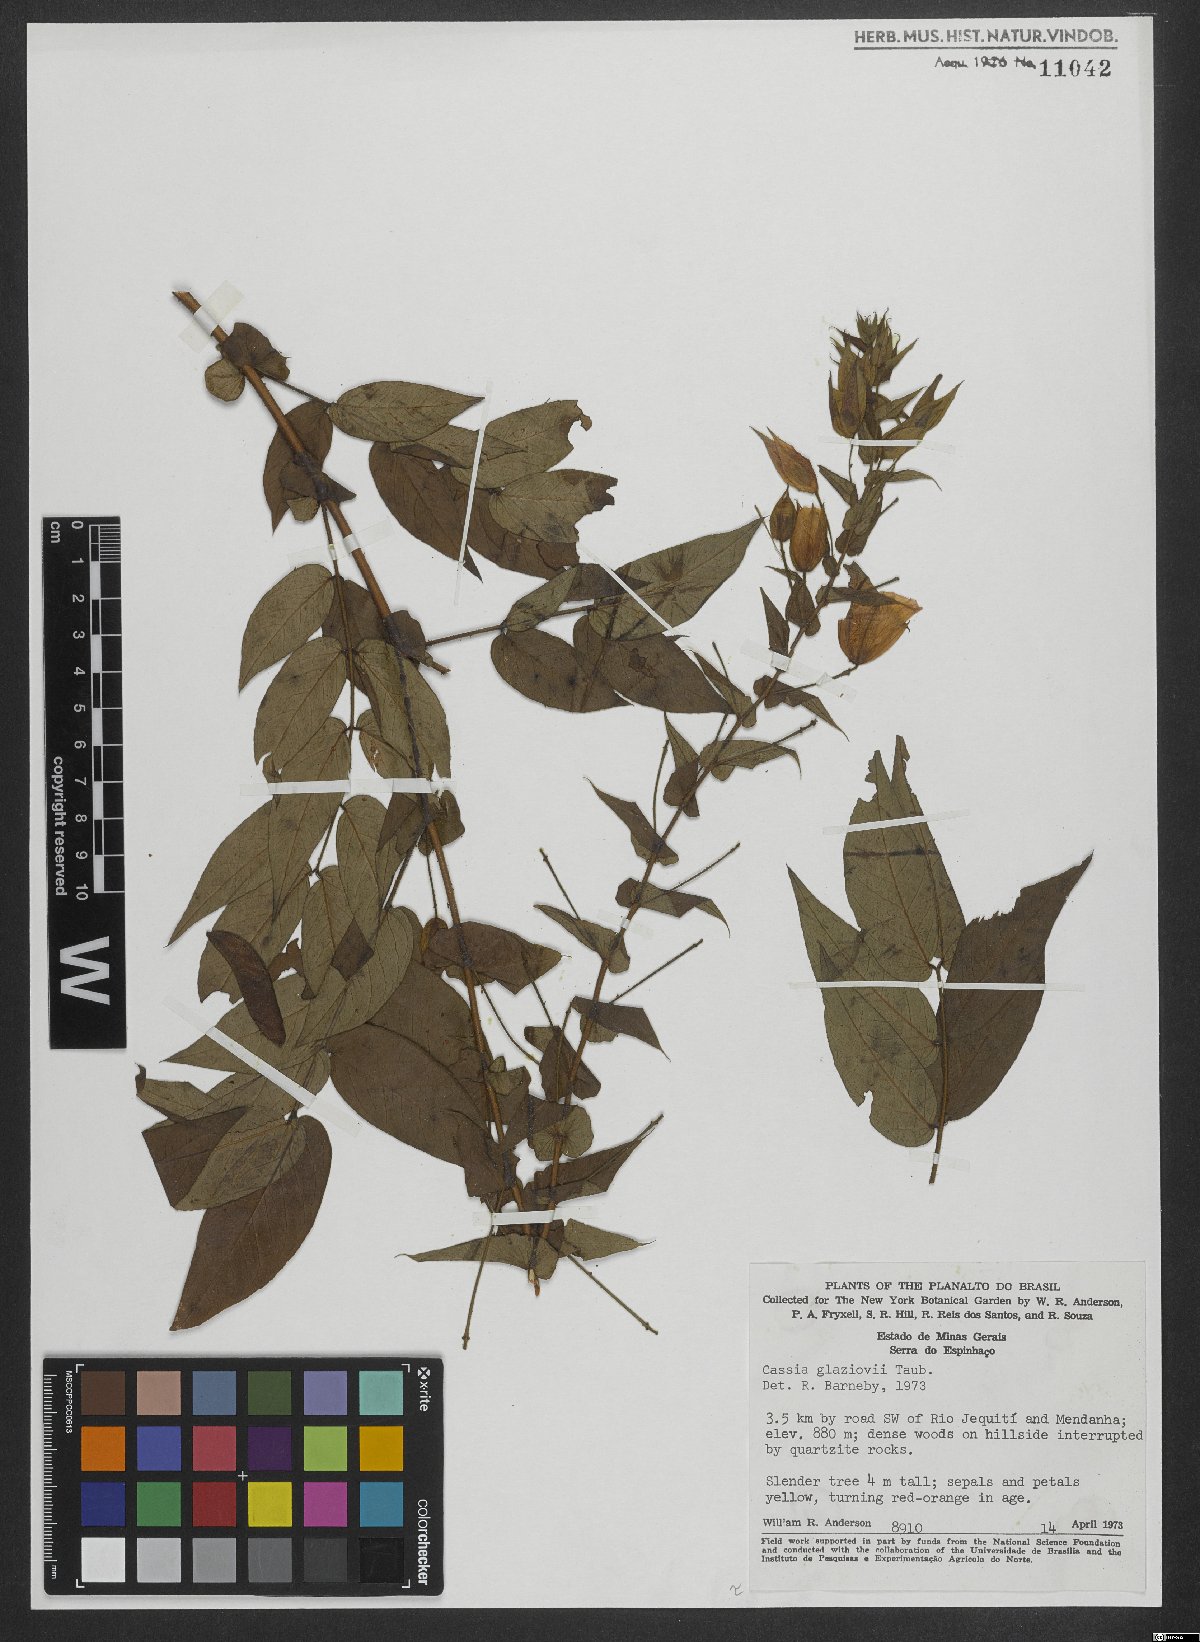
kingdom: Plantae
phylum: Tracheophyta
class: Magnoliopsida
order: Fabales
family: Fabaceae
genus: Chamaecrista
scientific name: Chamaecrista glaziovii
